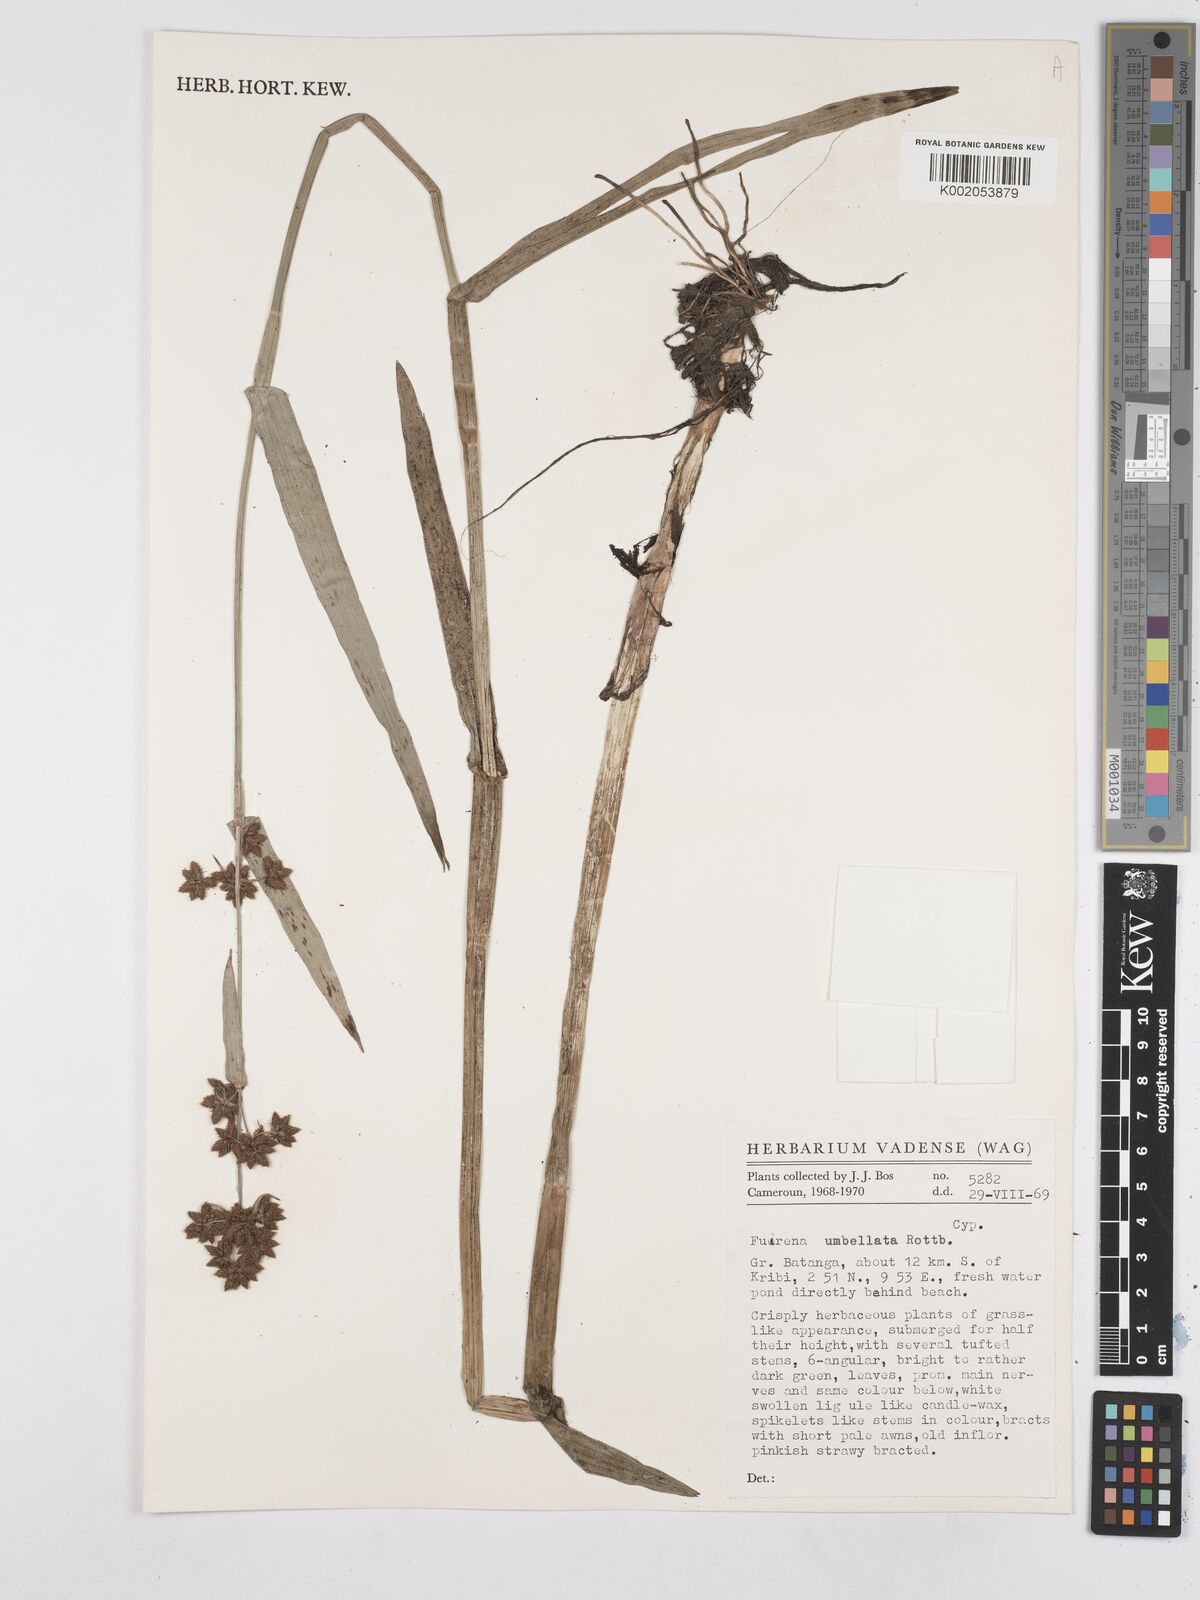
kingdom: Plantae
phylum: Tracheophyta
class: Liliopsida
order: Poales
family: Cyperaceae
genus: Fuirena
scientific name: Fuirena umbellata
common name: Yefen
